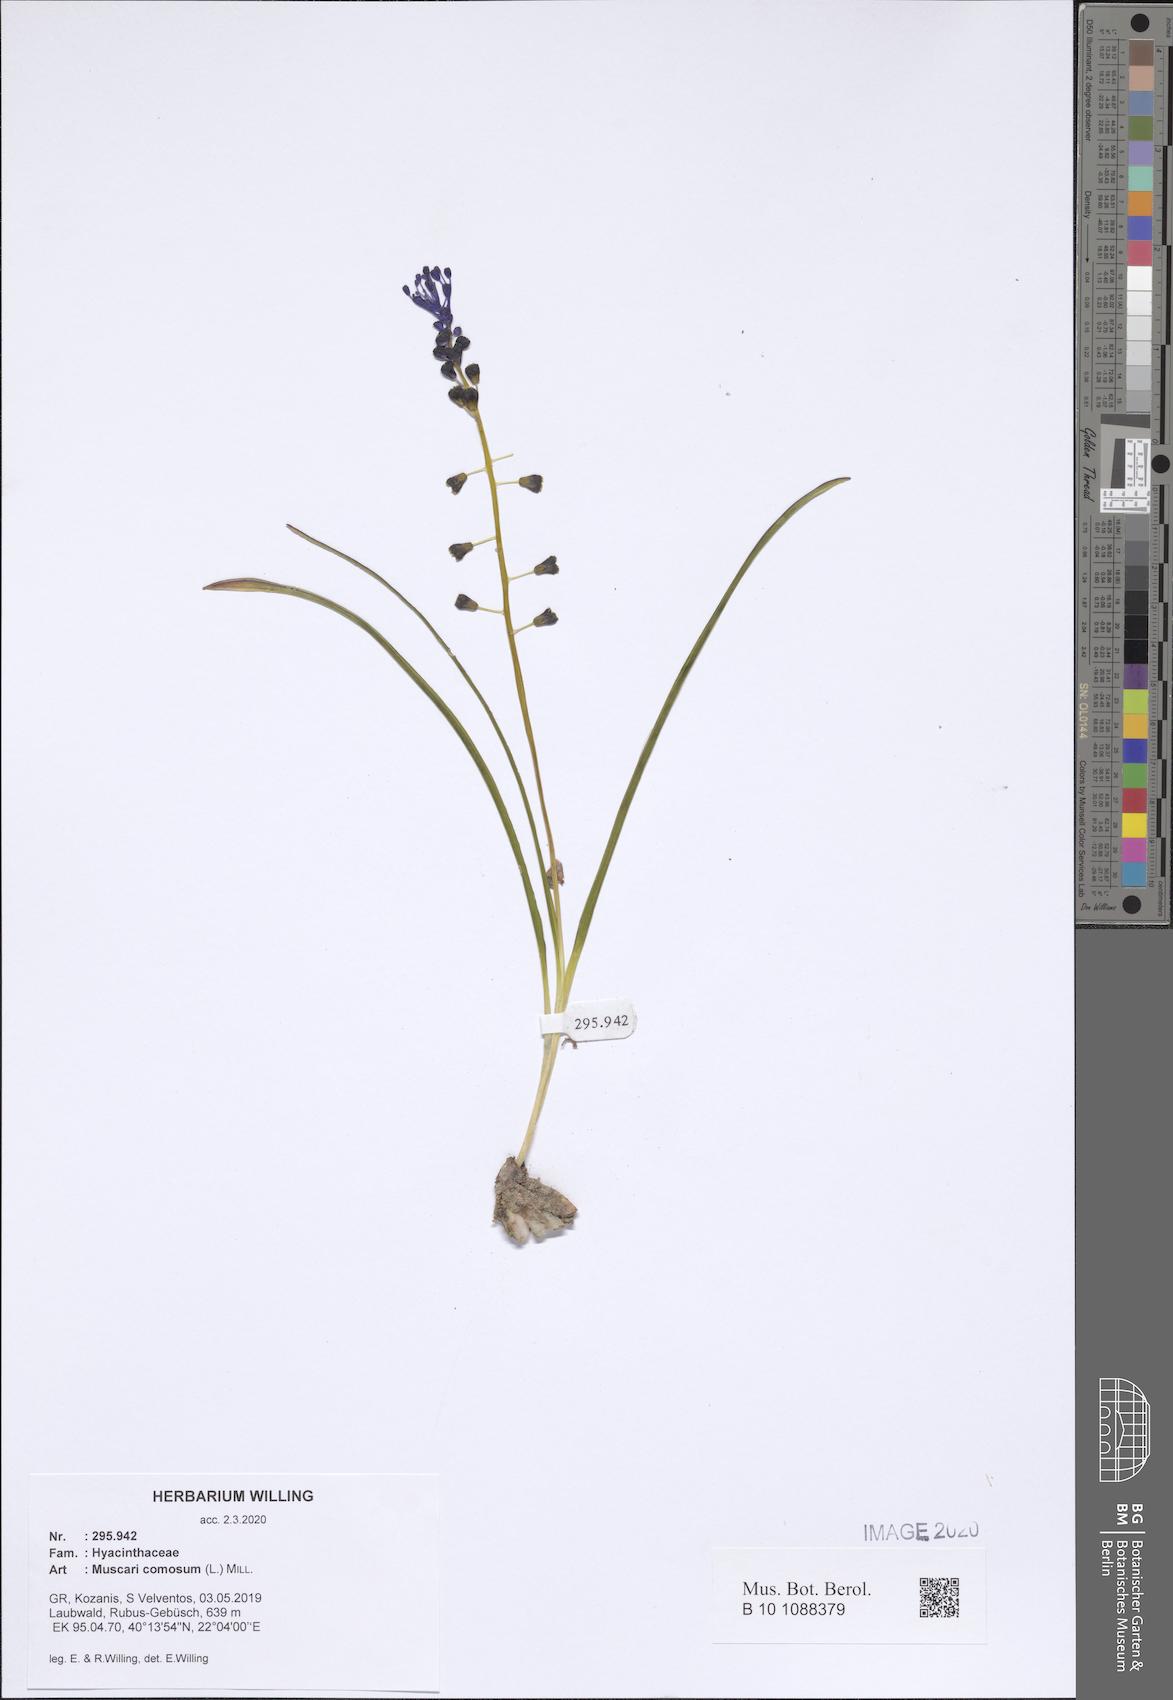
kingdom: Plantae
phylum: Tracheophyta
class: Liliopsida
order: Asparagales
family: Asparagaceae
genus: Muscari
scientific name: Muscari comosum
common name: Tassel hyacinth
